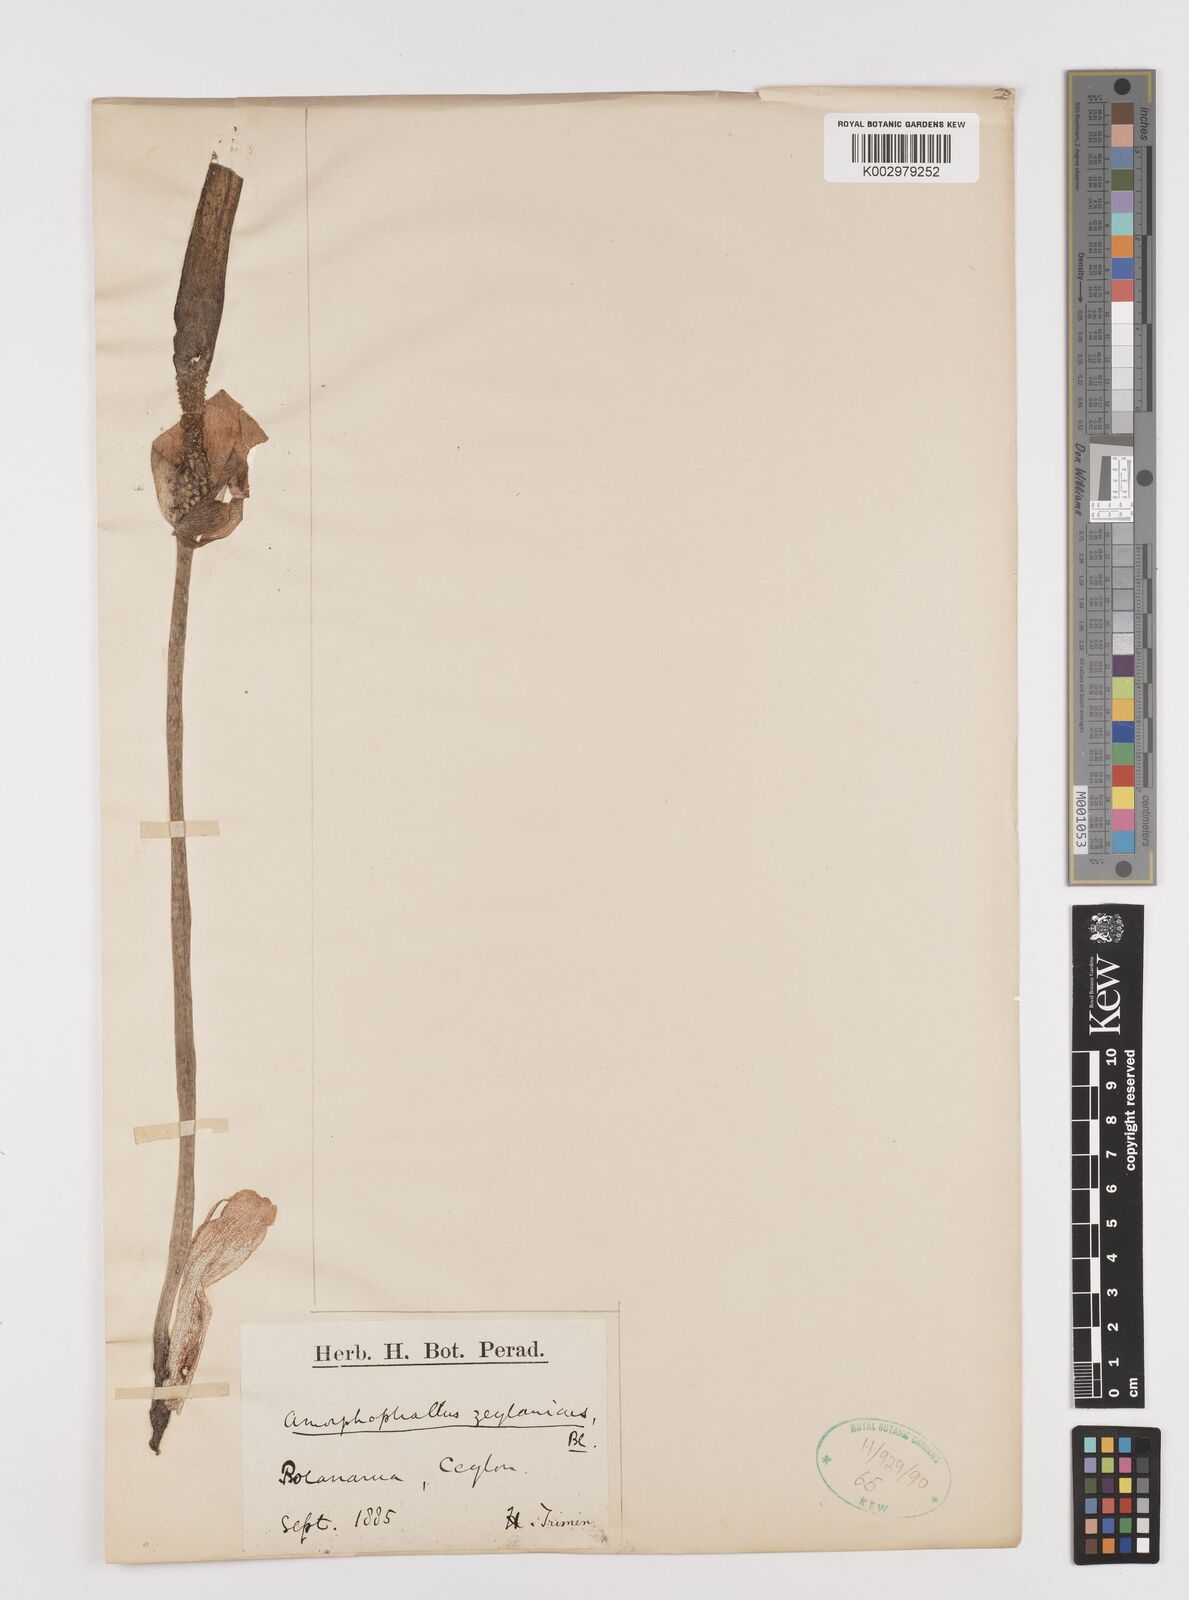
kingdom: Plantae
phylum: Tracheophyta
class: Liliopsida
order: Alismatales
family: Araceae
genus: Amorphophallus
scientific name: Amorphophallus variabilis
